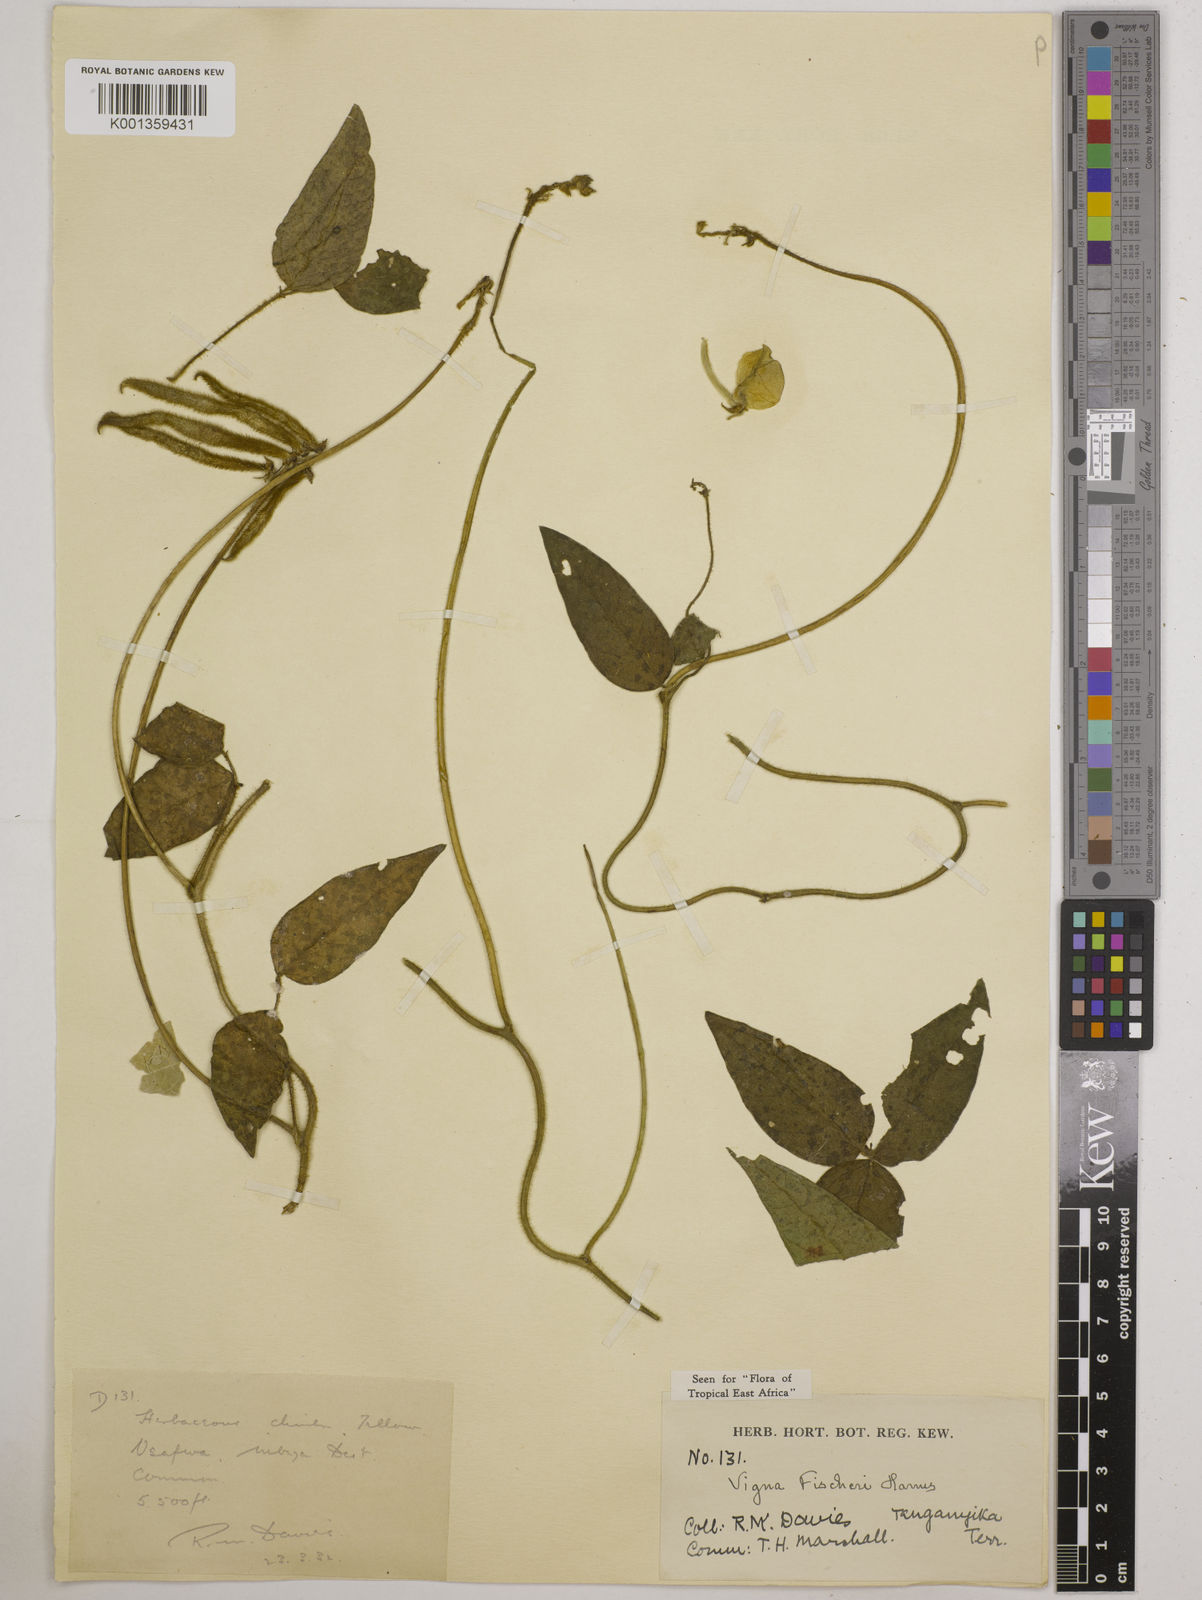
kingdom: Plantae
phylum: Tracheophyta
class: Magnoliopsida
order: Fabales
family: Fabaceae
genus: Vigna
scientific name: Vigna fischeri
